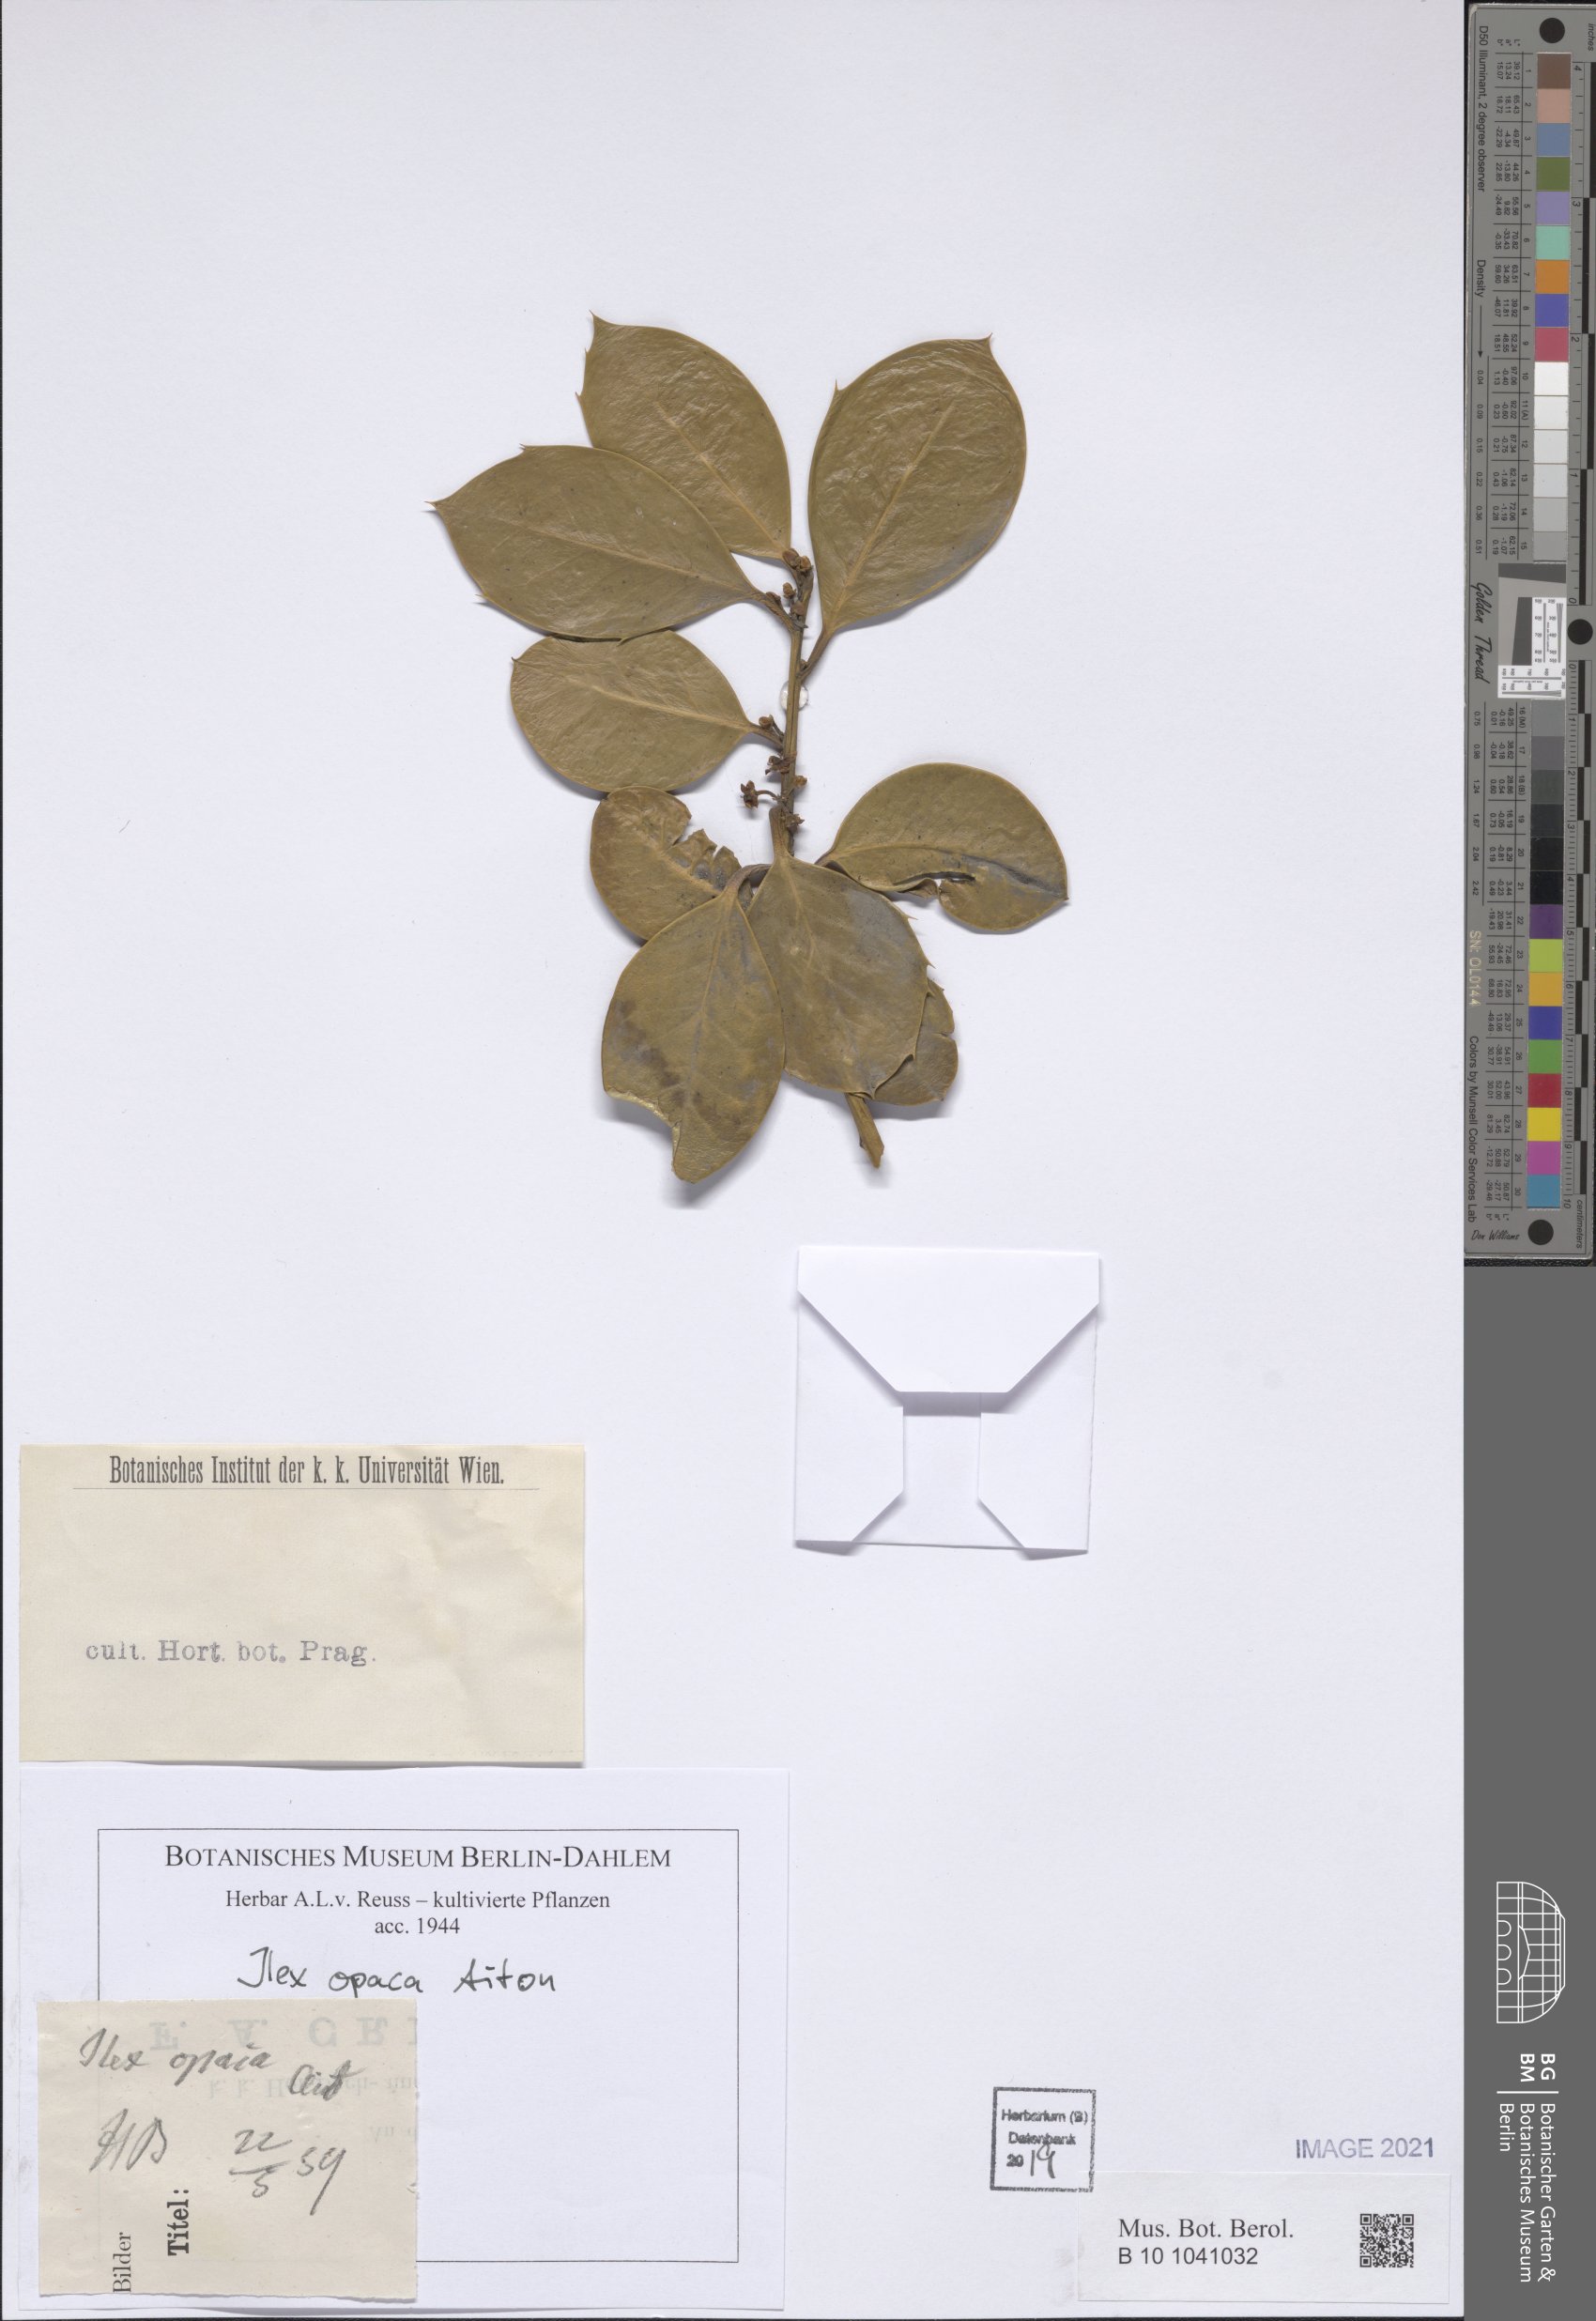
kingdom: Plantae
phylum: Tracheophyta
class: Magnoliopsida
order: Aquifoliales
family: Aquifoliaceae
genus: Ilex
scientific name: Ilex opaca
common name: American holly
